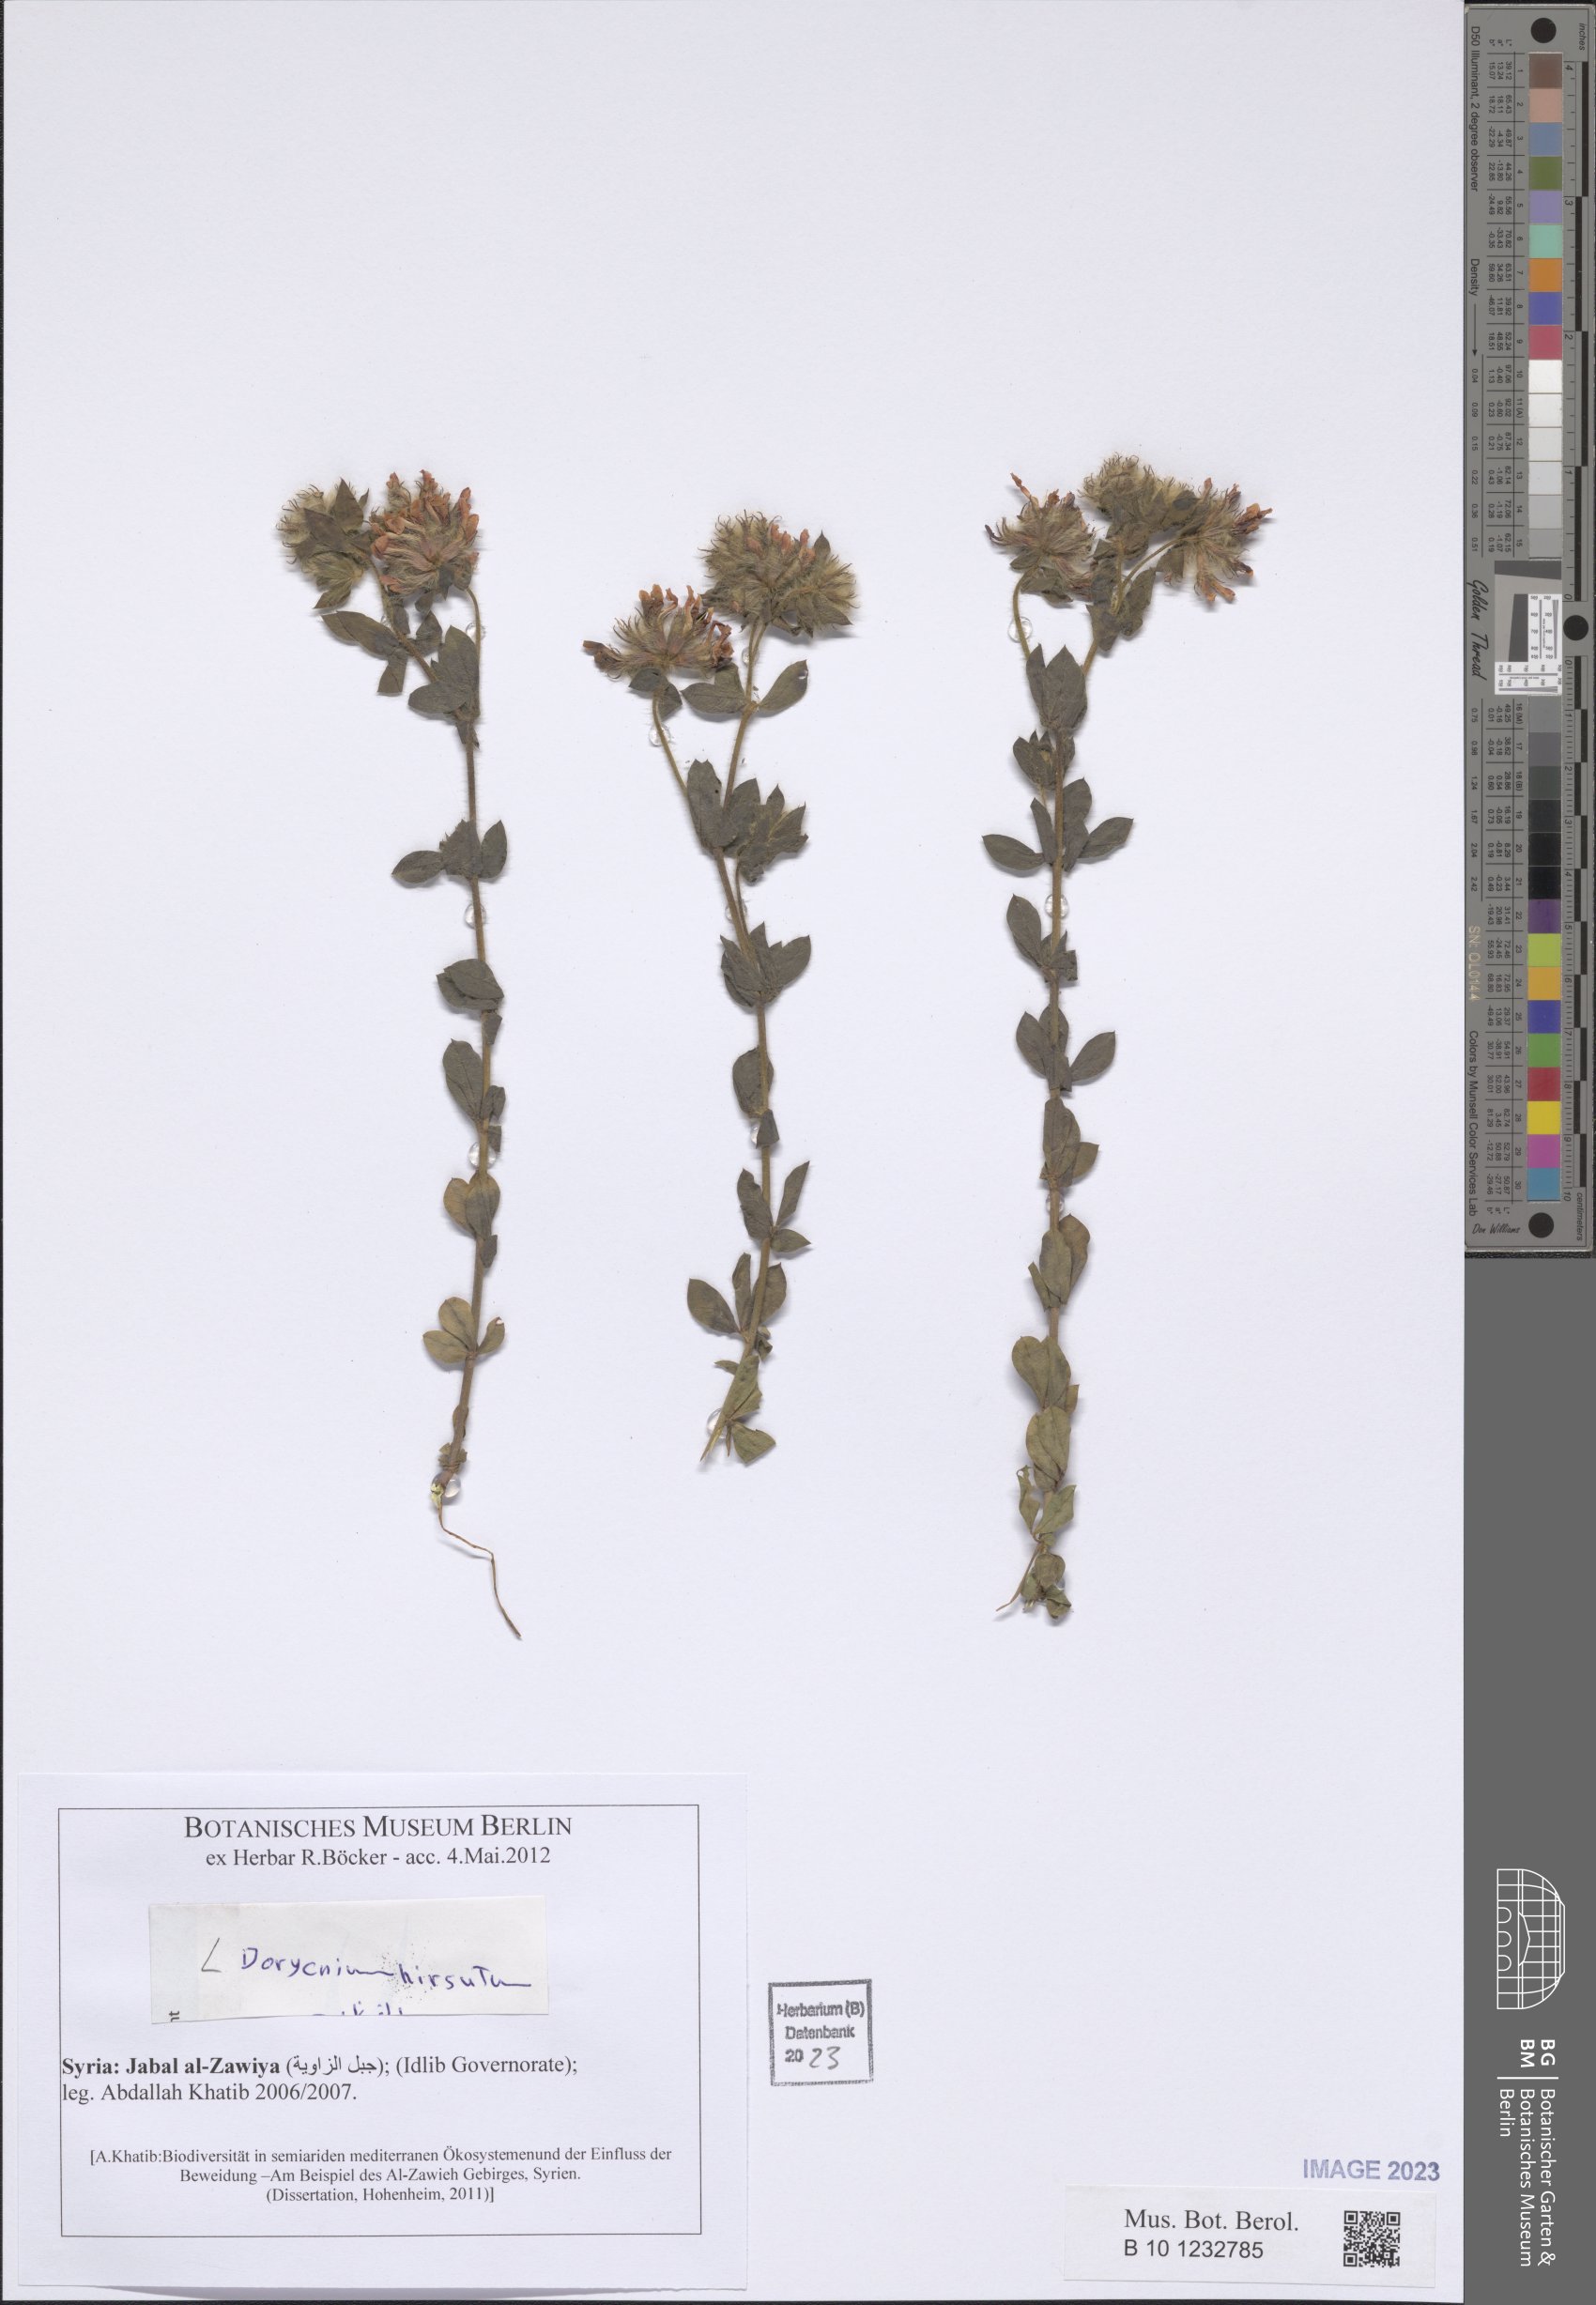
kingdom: Plantae
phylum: Tracheophyta
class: Magnoliopsida
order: Fabales
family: Fabaceae
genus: Lotus
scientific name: Lotus hirsutus
